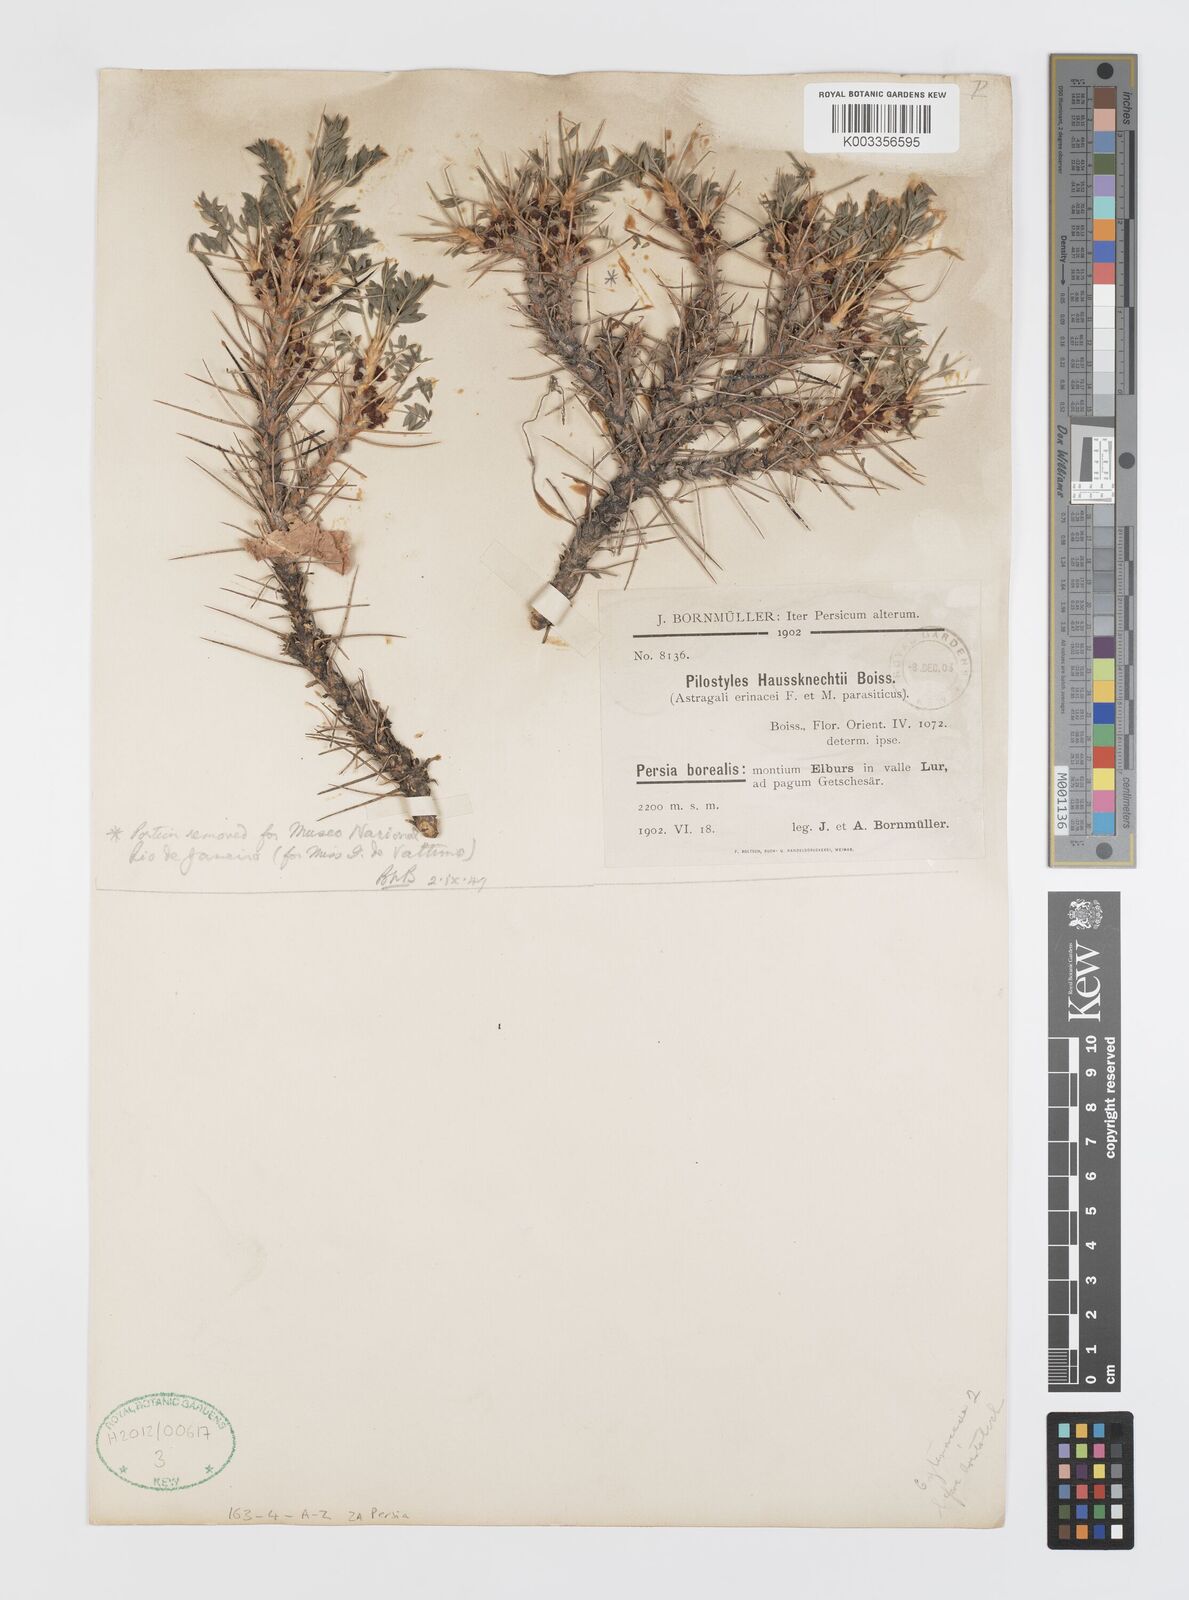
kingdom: Plantae
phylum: Tracheophyta
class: Magnoliopsida
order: Cucurbitales
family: Apodanthaceae
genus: Pilostyles
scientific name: Pilostyles haussknechtii
